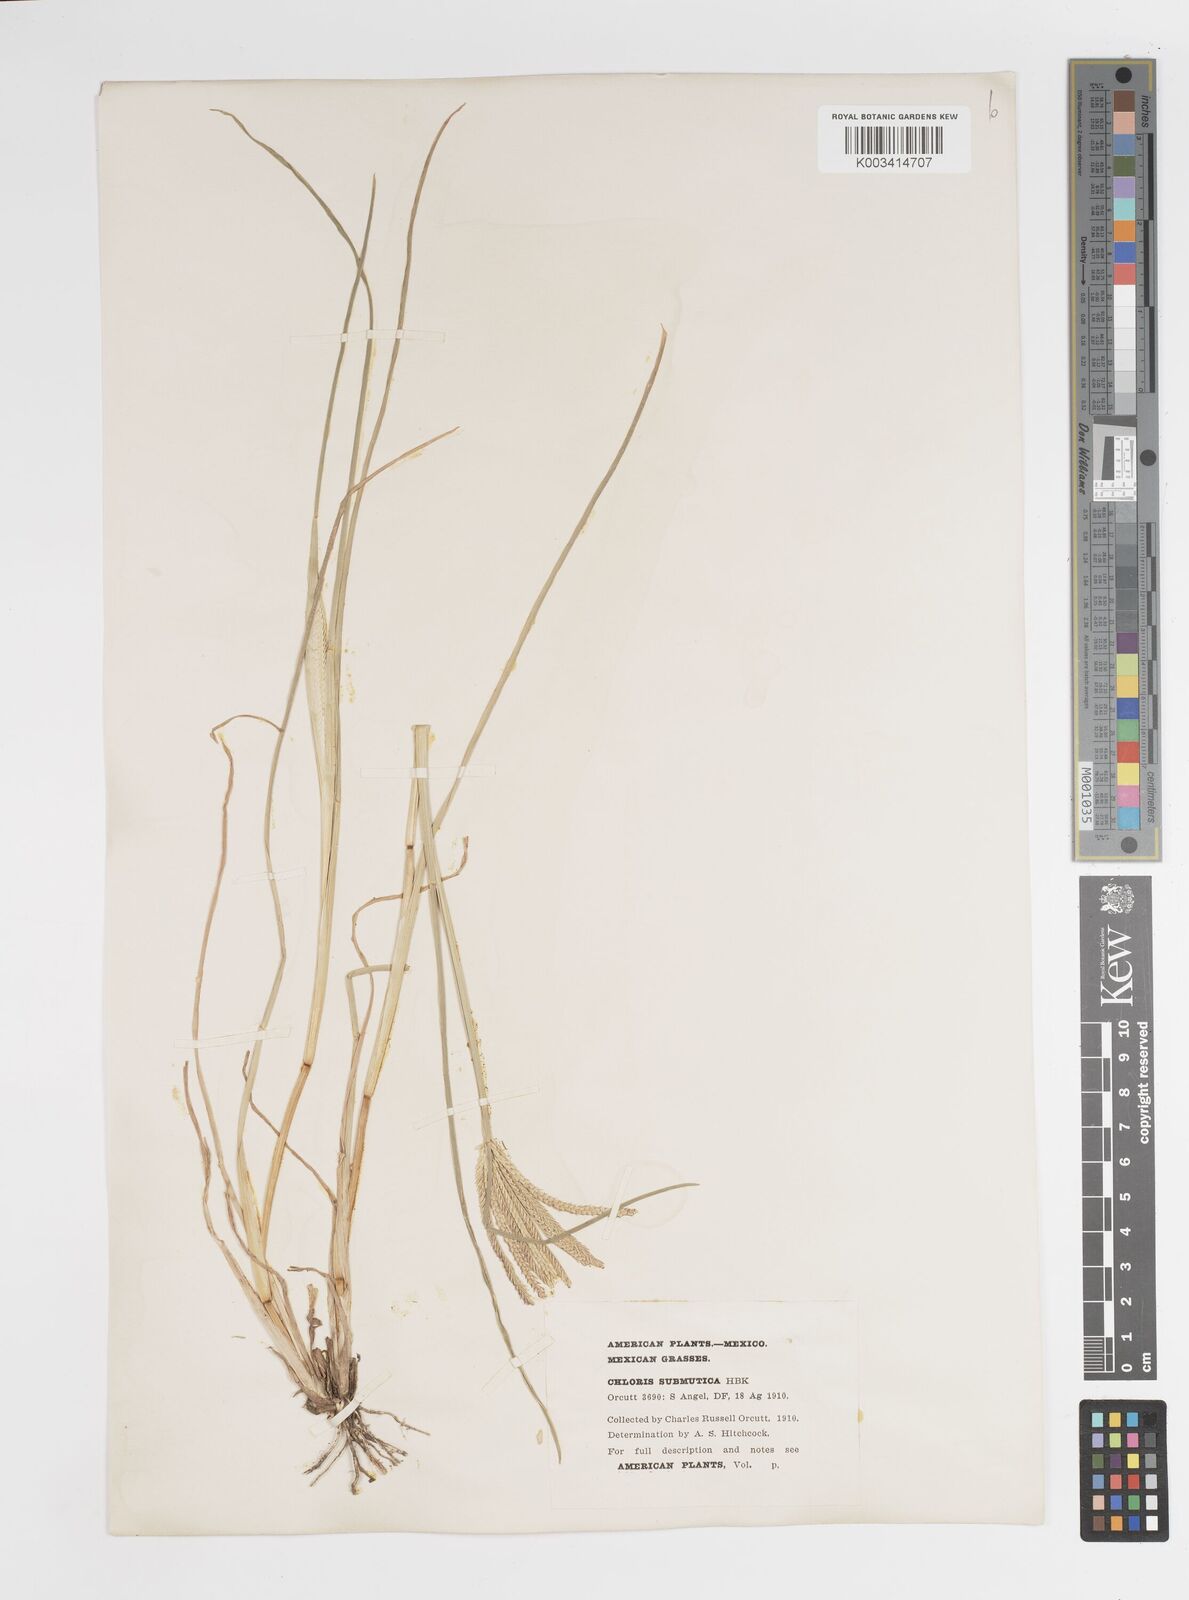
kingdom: Plantae
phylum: Tracheophyta
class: Liliopsida
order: Poales
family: Poaceae
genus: Chloris
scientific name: Chloris submutica
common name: Mexican windmill grass
